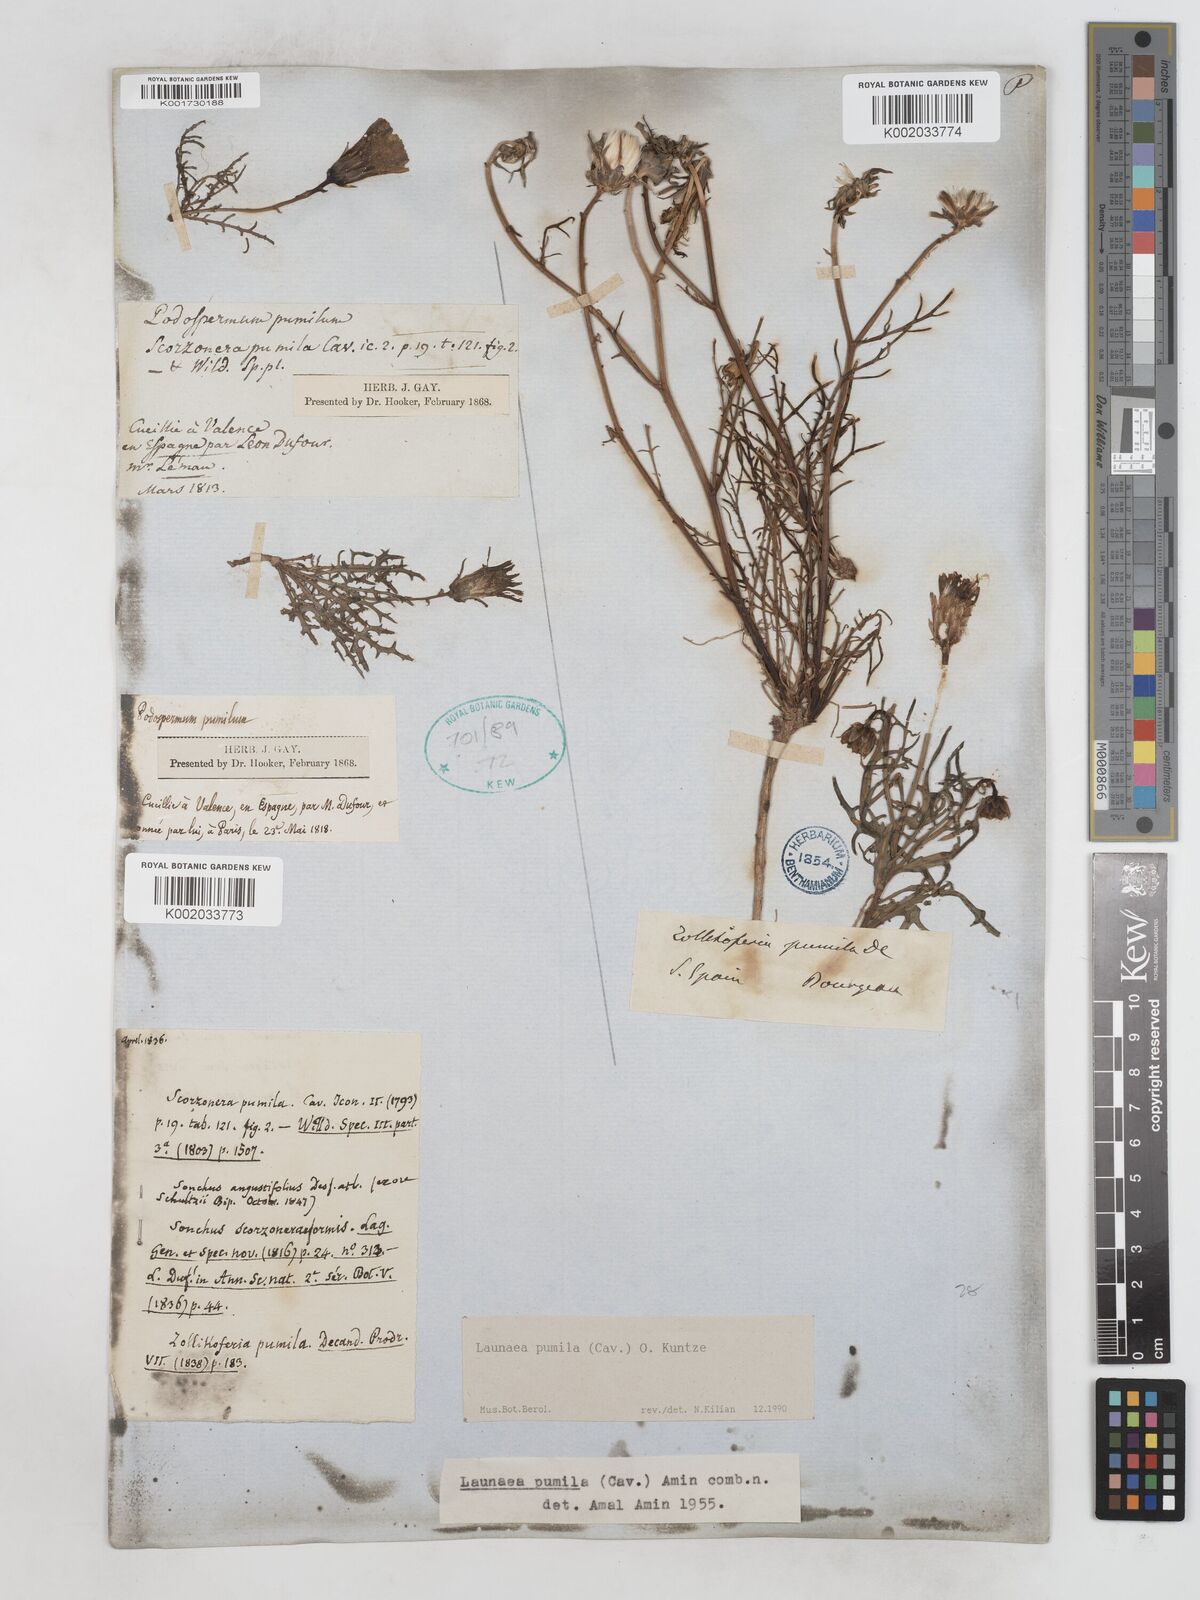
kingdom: Plantae
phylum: Tracheophyta
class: Magnoliopsida
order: Asterales
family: Asteraceae
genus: Launaea
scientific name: Launaea pumila
